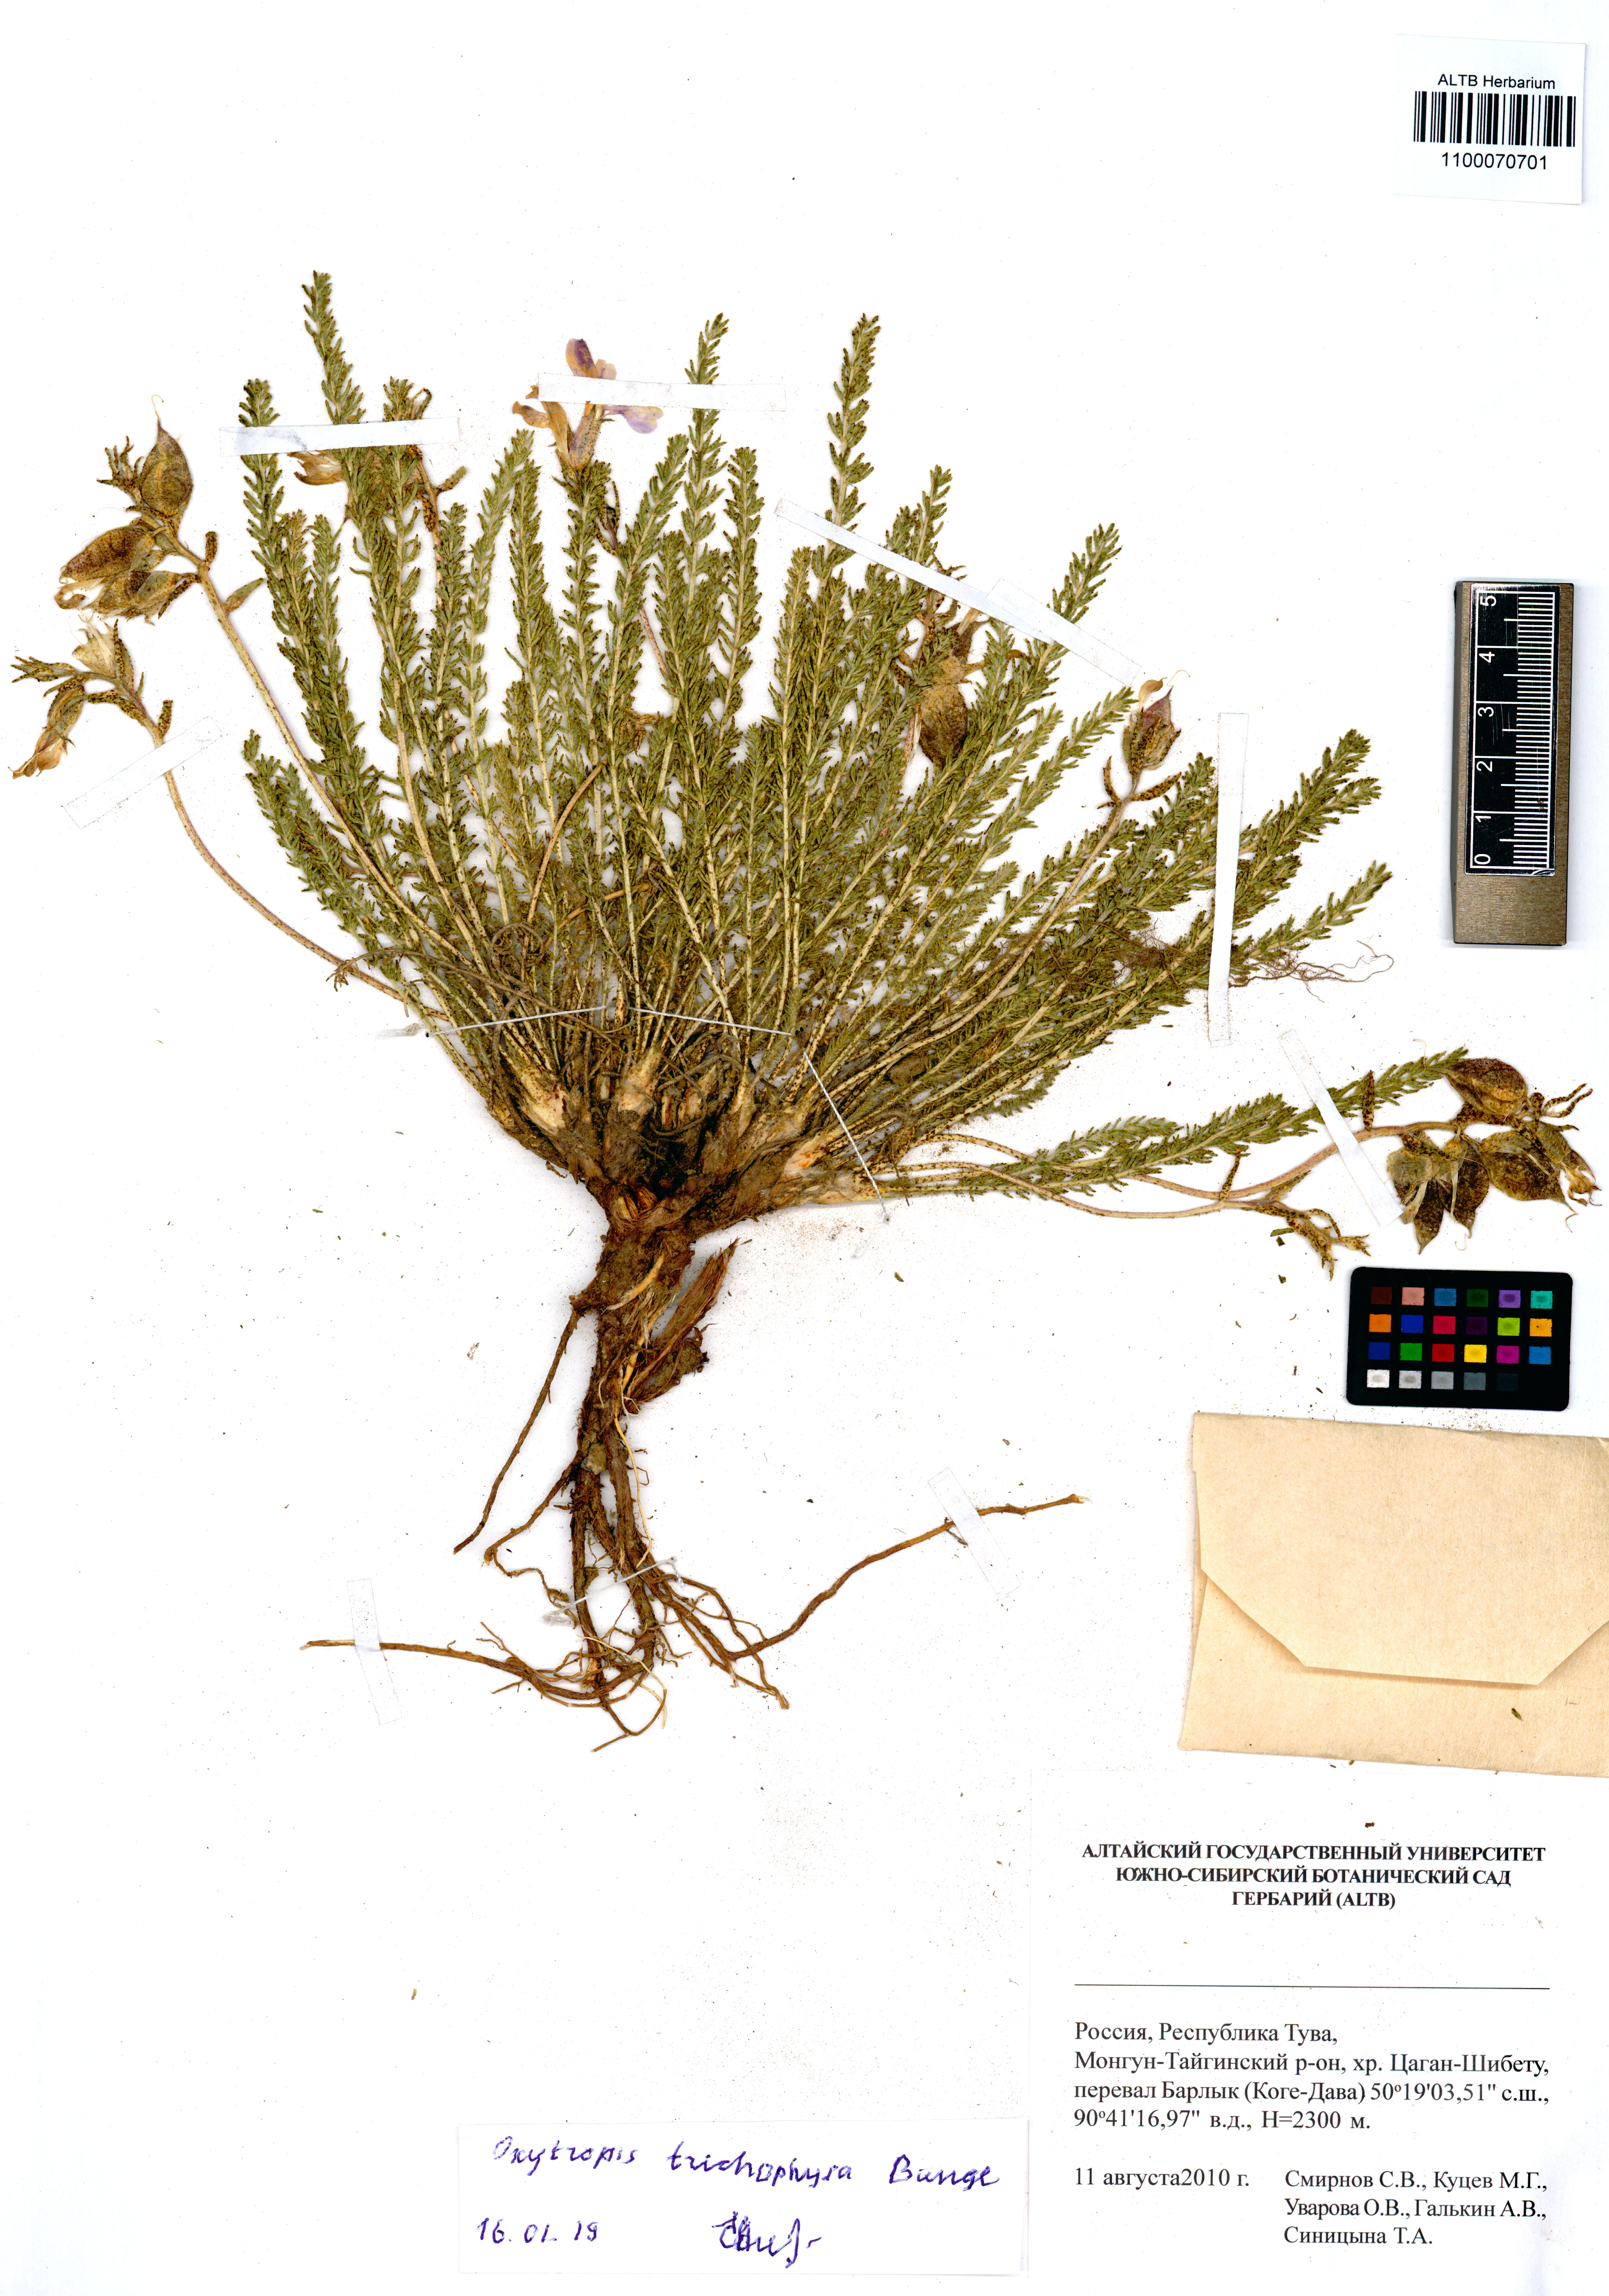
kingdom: Plantae
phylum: Tracheophyta
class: Magnoliopsida
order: Fabales
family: Fabaceae
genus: Oxytropis
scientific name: Oxytropis trichophysa
